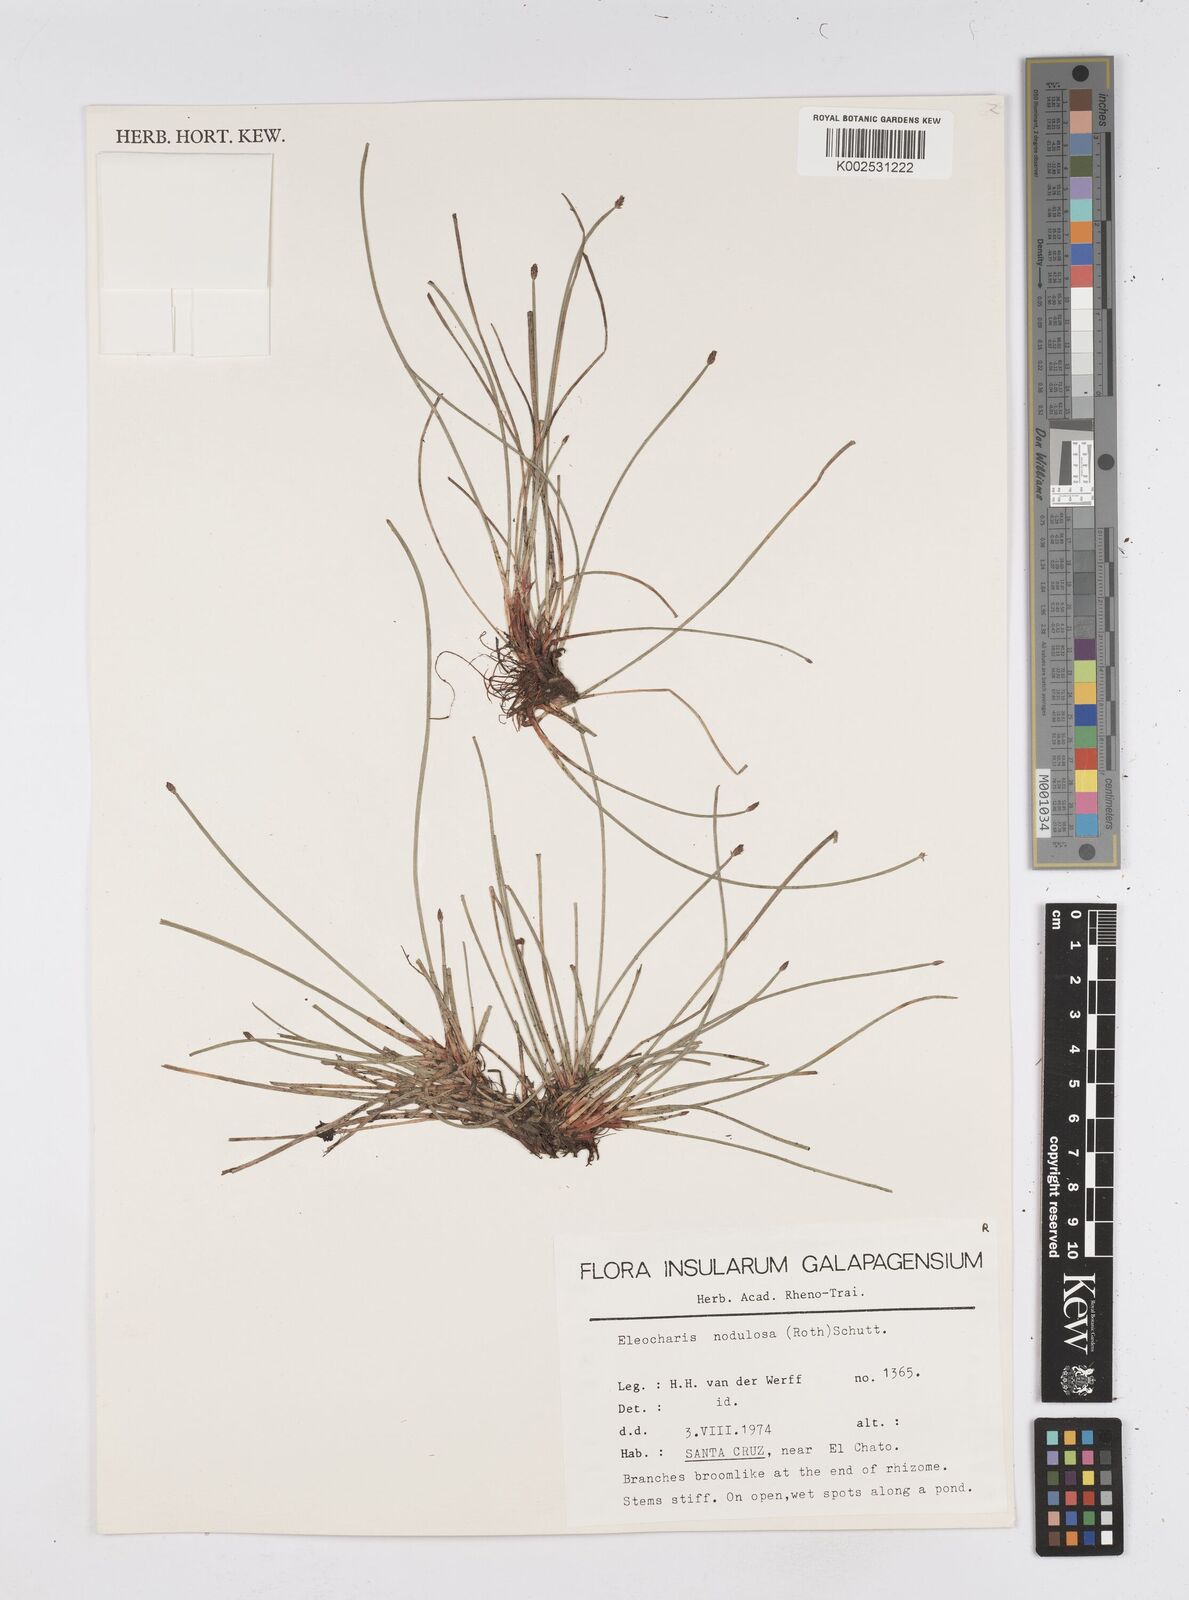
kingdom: Plantae
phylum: Tracheophyta
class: Liliopsida
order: Poales
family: Cyperaceae
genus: Eleocharis
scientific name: Eleocharis montana
